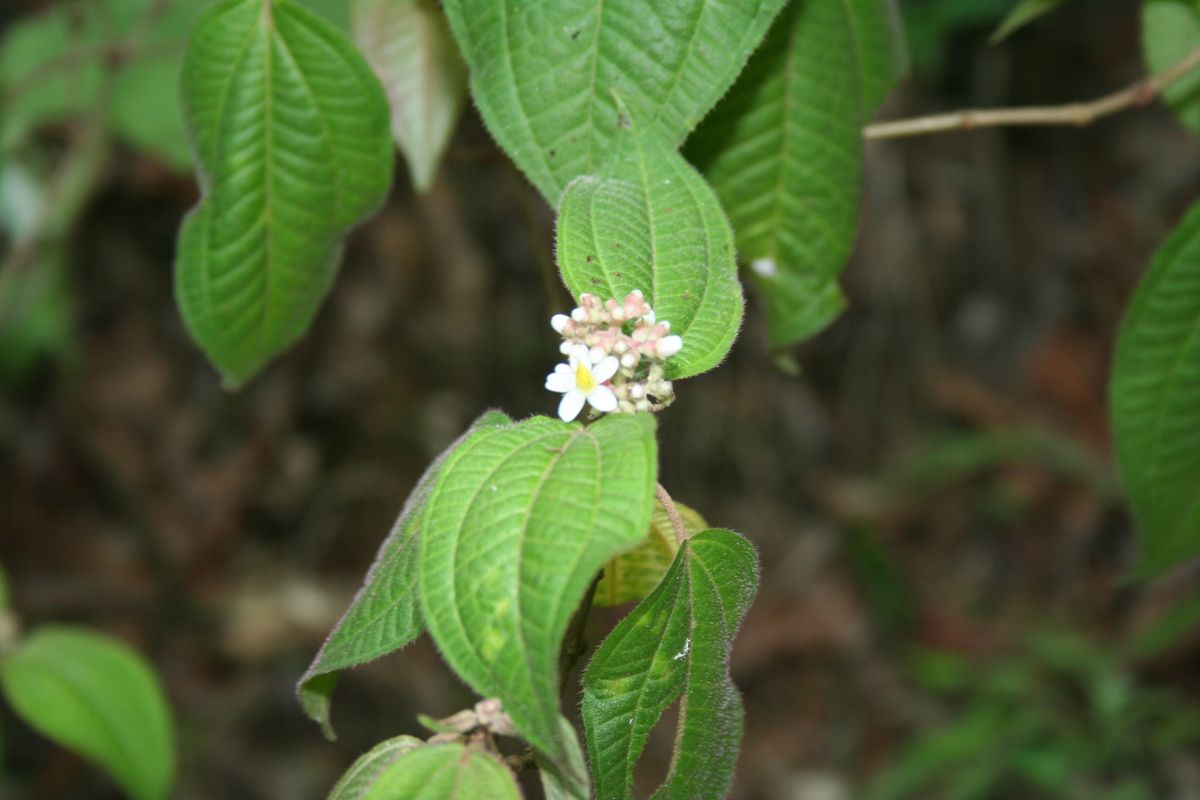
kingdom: Plantae
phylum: Tracheophyta
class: Magnoliopsida
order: Myrtales
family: Melastomataceae
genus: Miconia
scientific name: Miconia laevigata
